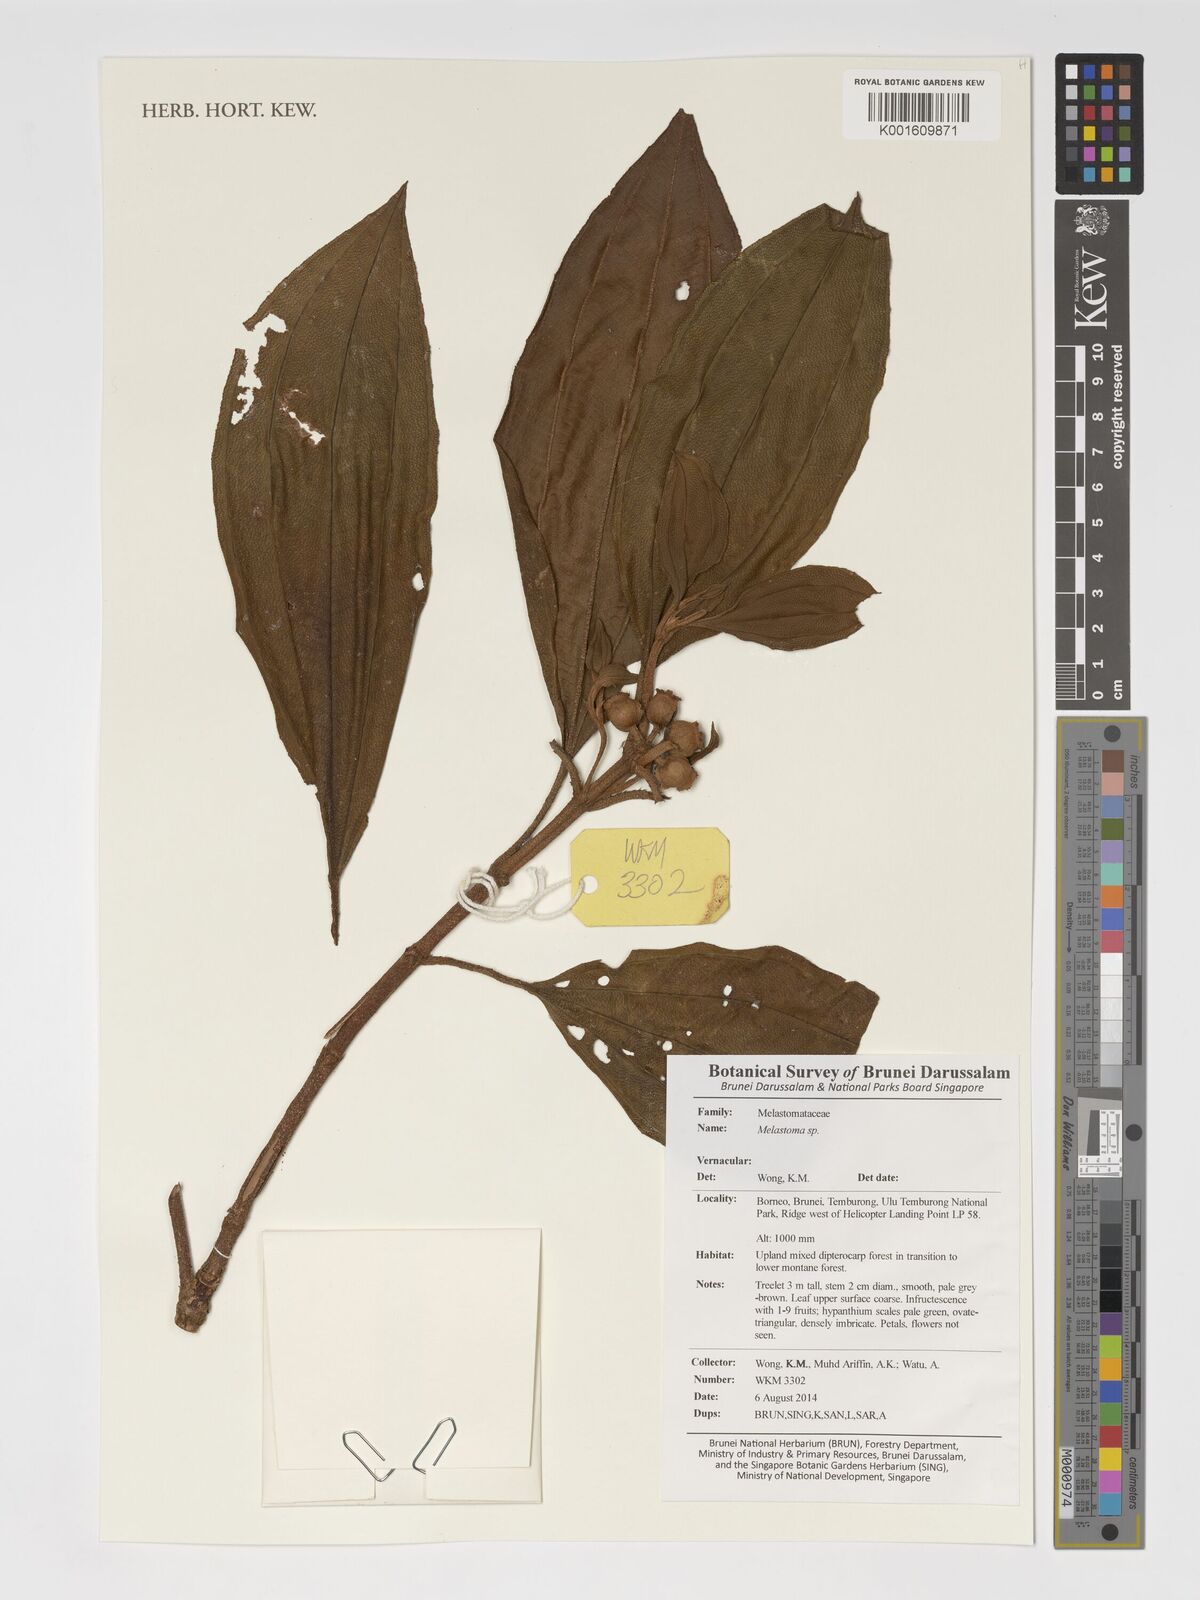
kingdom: Plantae
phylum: Tracheophyta
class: Magnoliopsida
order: Myrtales
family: Melastomataceae
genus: Melastoma
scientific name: Melastoma
